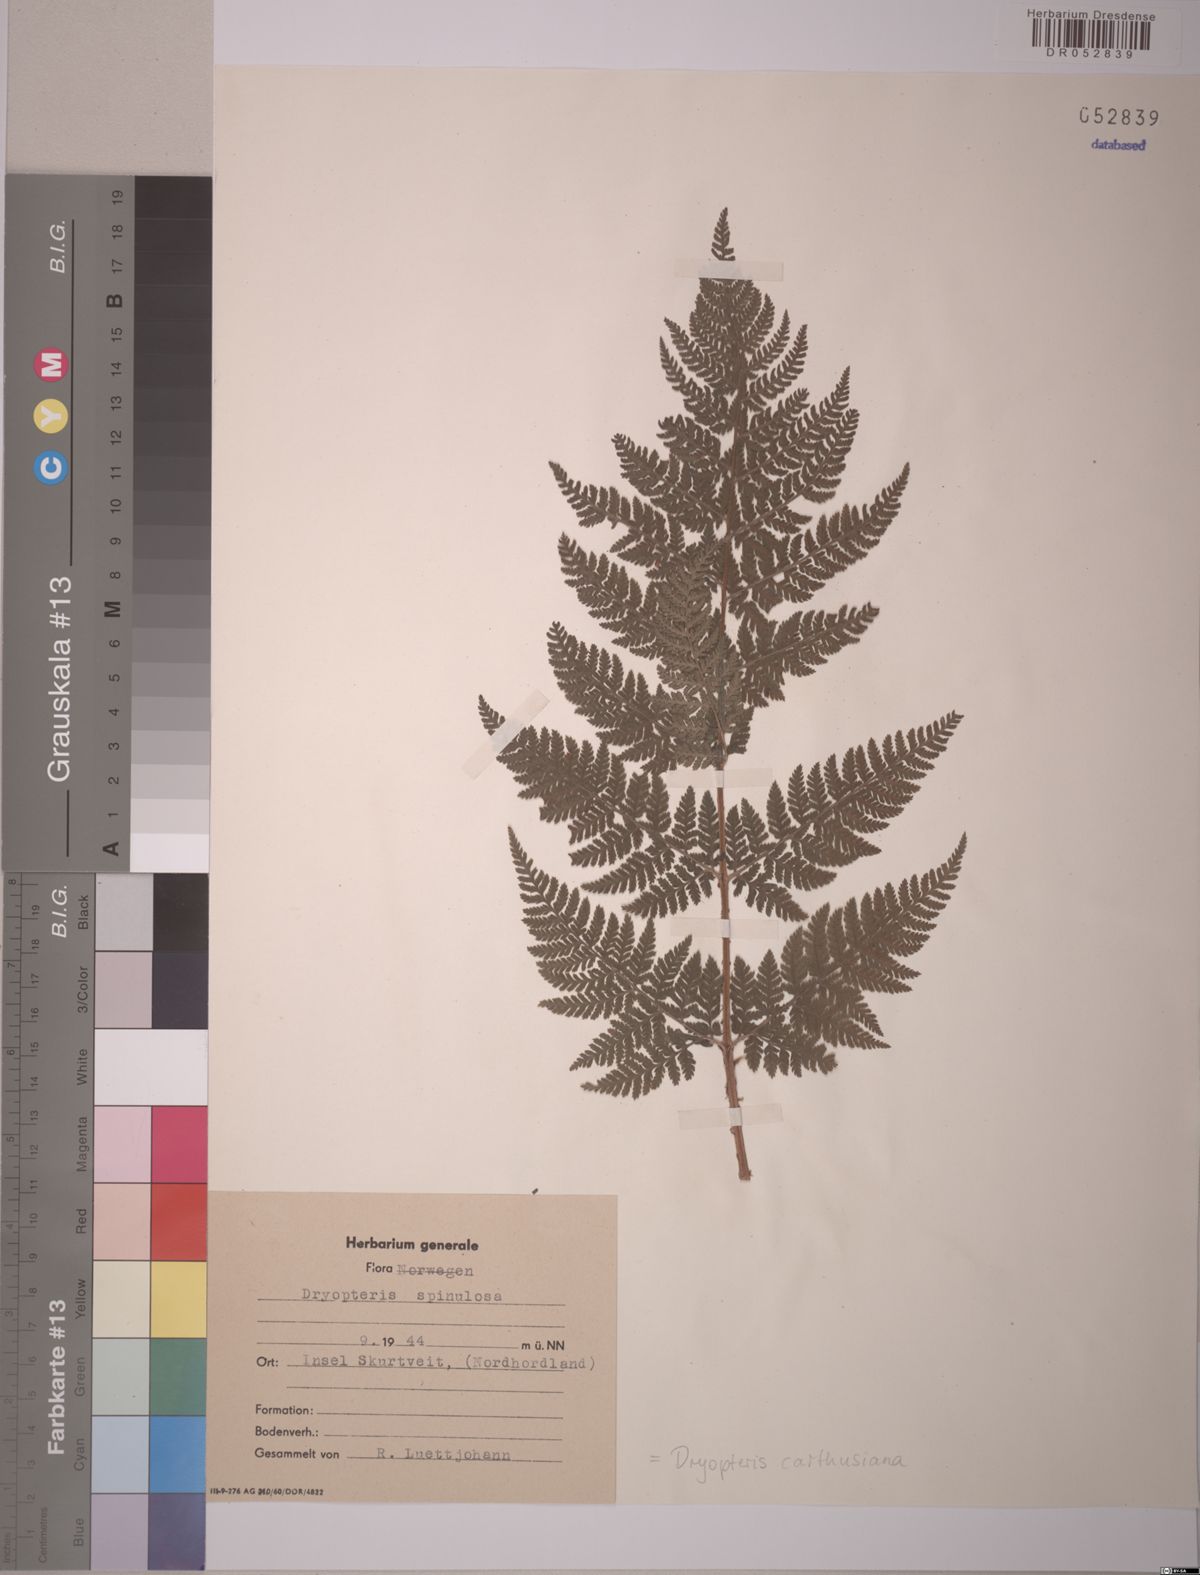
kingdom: Plantae
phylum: Tracheophyta
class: Polypodiopsida
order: Polypodiales
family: Dryopteridaceae
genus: Dryopteris
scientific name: Dryopteris carthusiana
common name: Narrow buckler-fern
